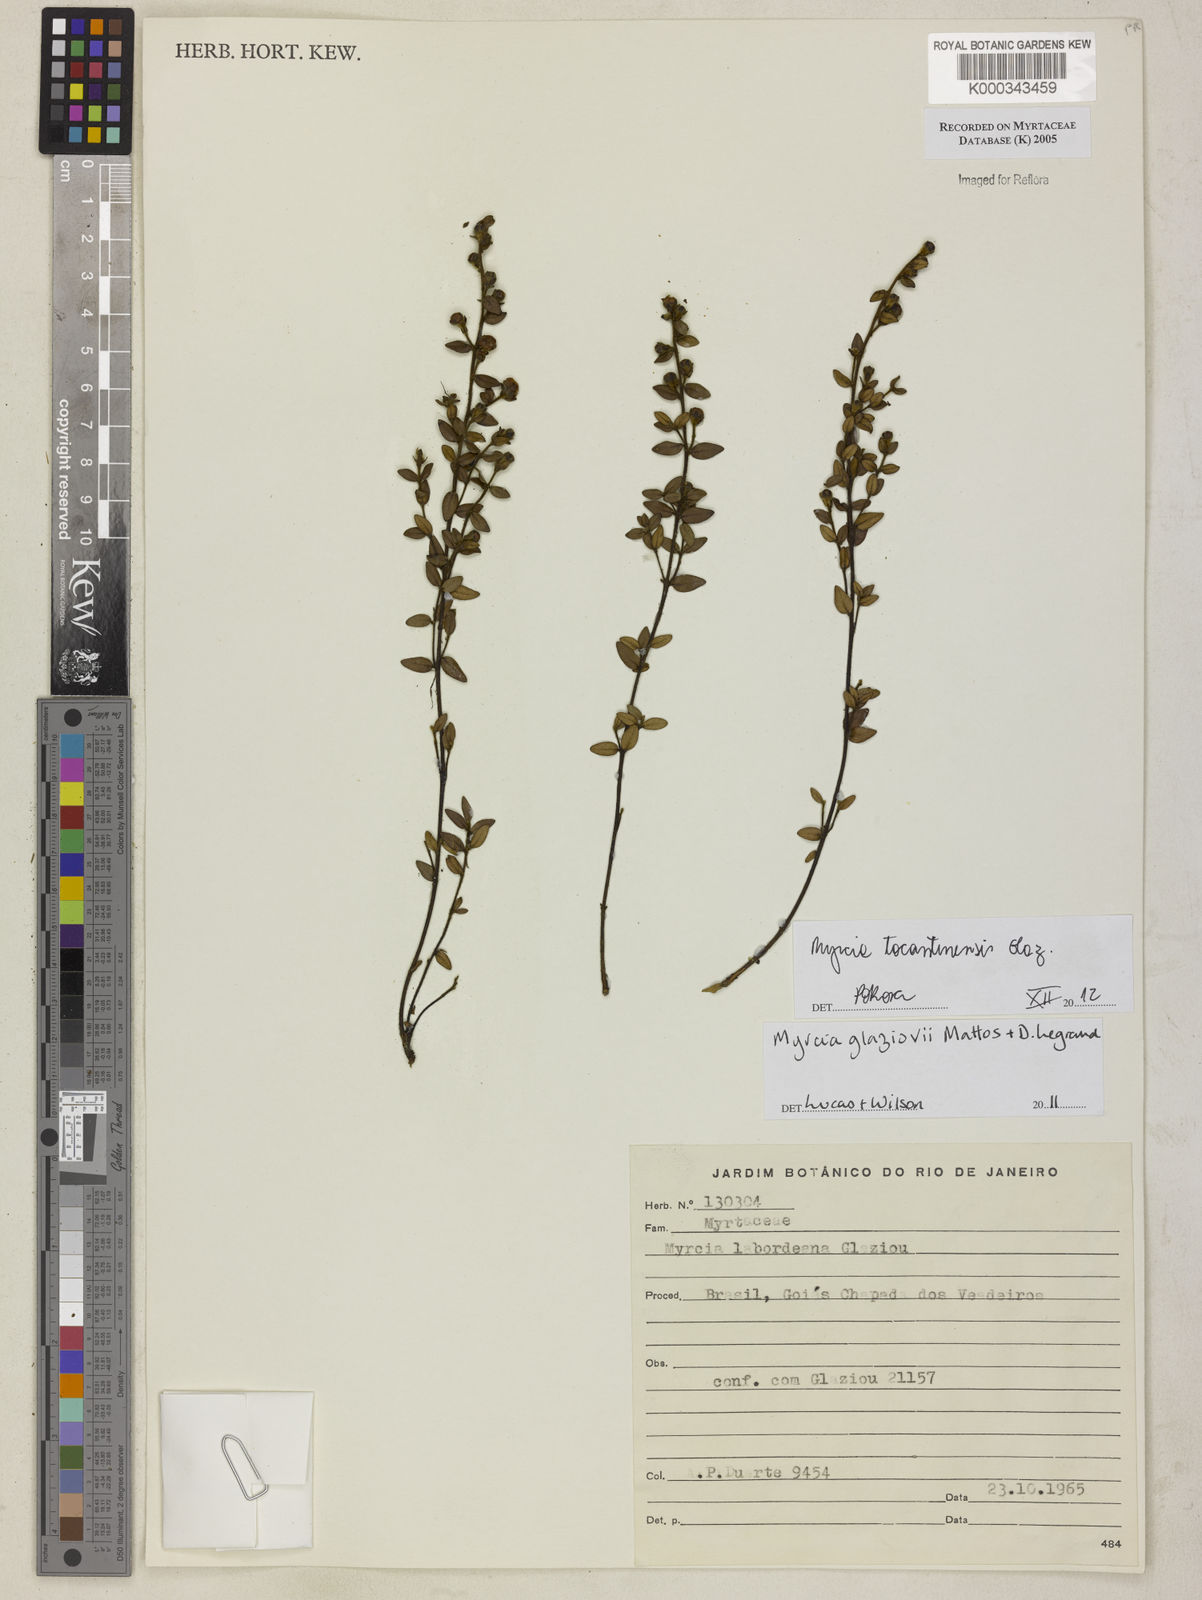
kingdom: Plantae
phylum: Tracheophyta
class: Magnoliopsida
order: Myrtales
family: Myrtaceae
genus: Myrcia
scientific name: Myrcia
